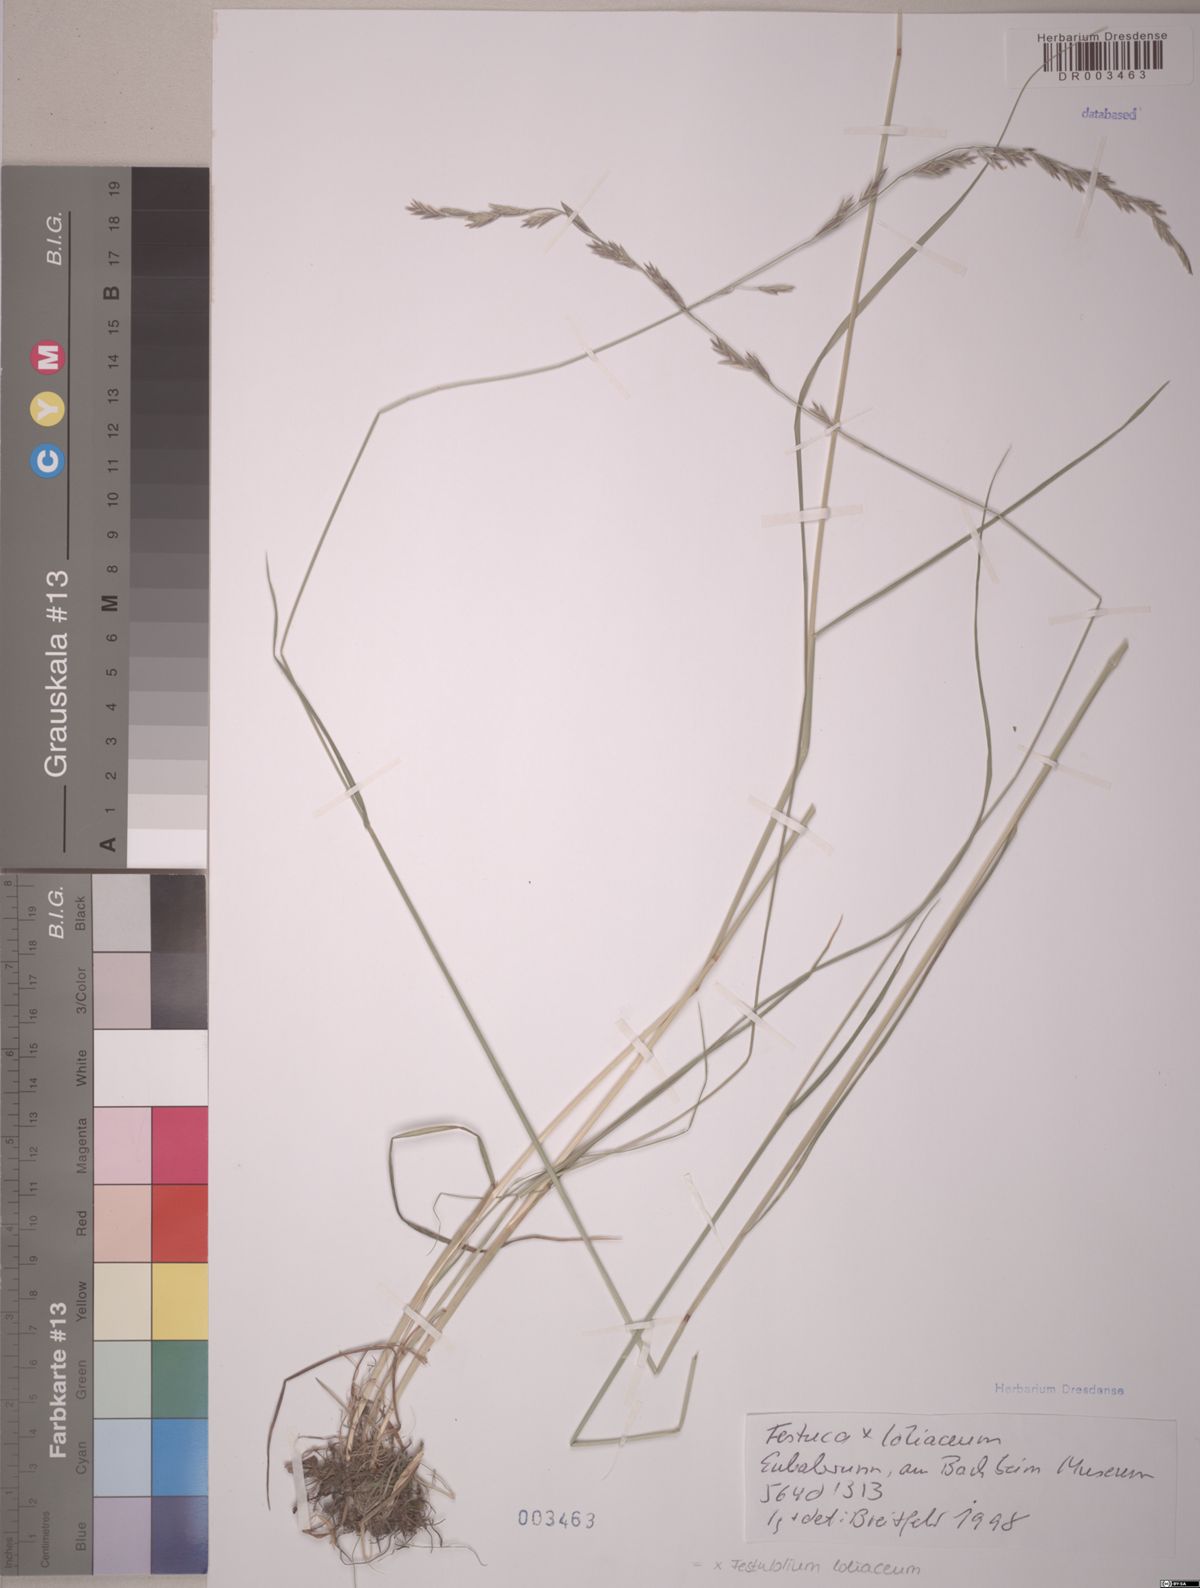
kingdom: Plantae
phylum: Tracheophyta
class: Liliopsida
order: Poales
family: Poaceae
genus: Lolium
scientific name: Lolium elongatum
